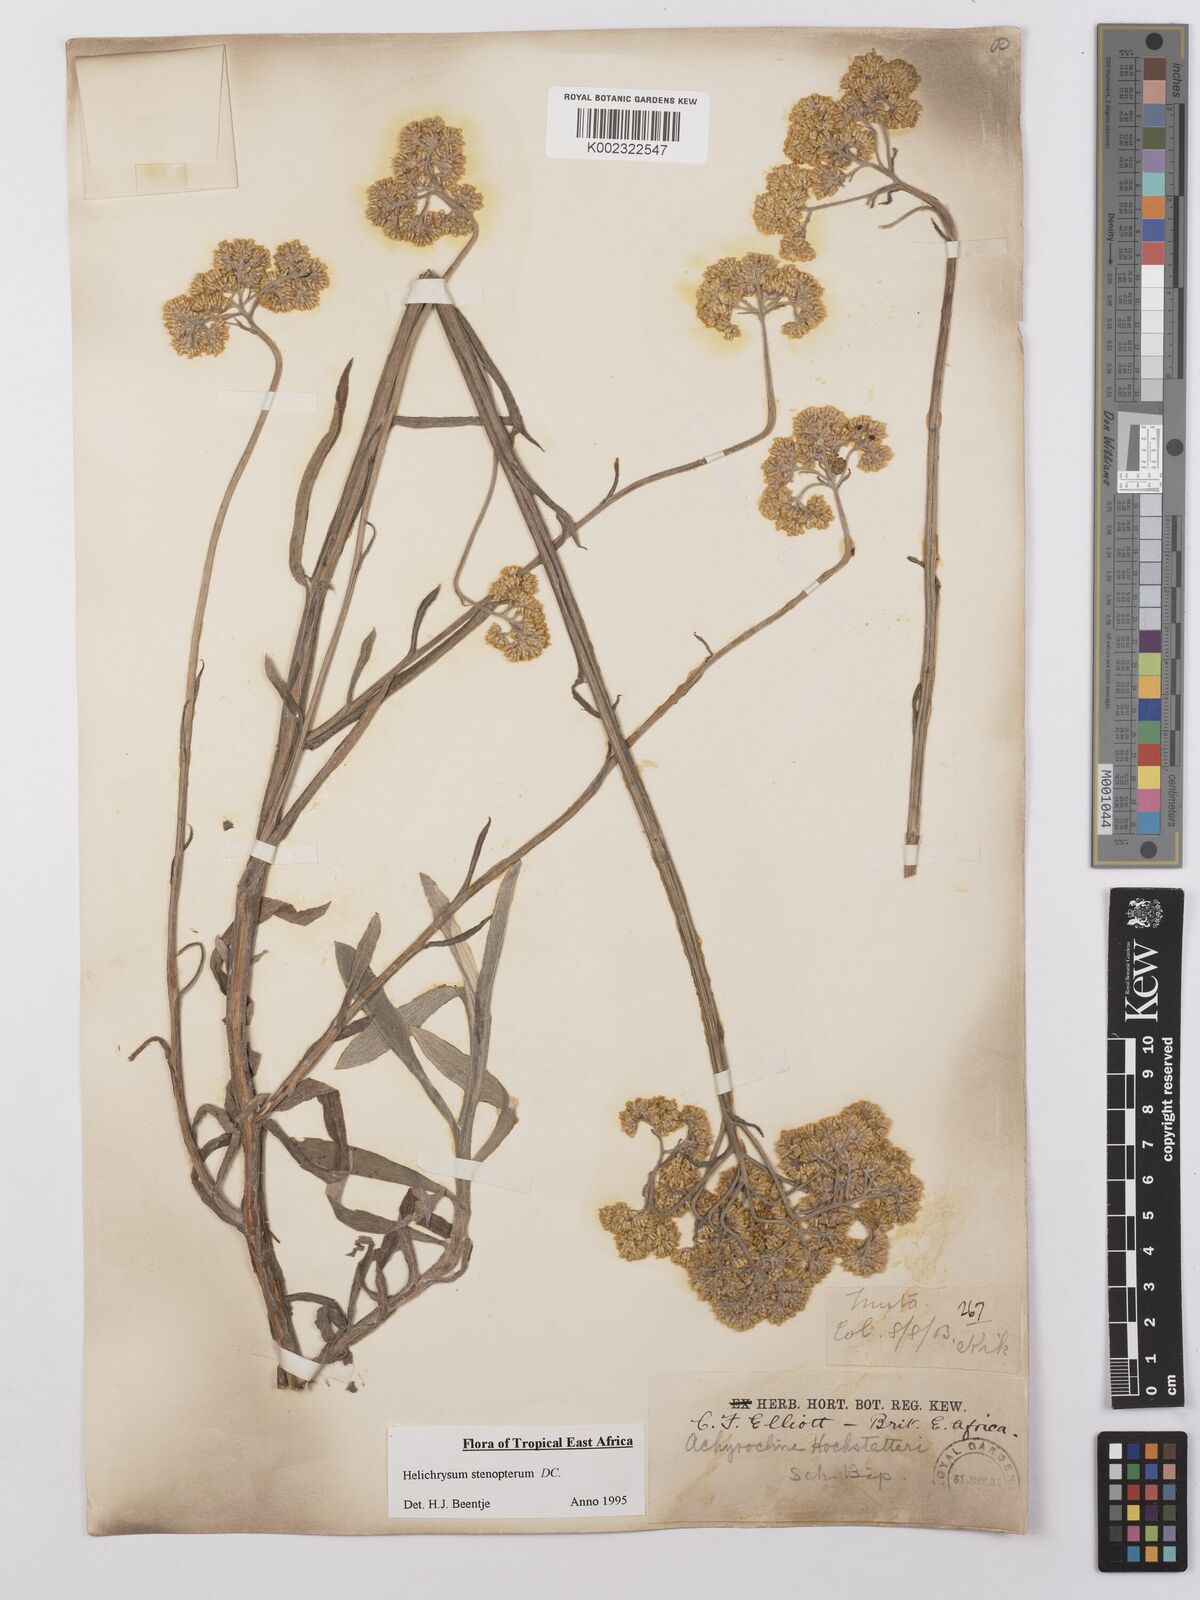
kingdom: Plantae
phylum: Tracheophyta
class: Magnoliopsida
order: Asterales
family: Asteraceae
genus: Helichrysum
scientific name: Helichrysum stenopterum
